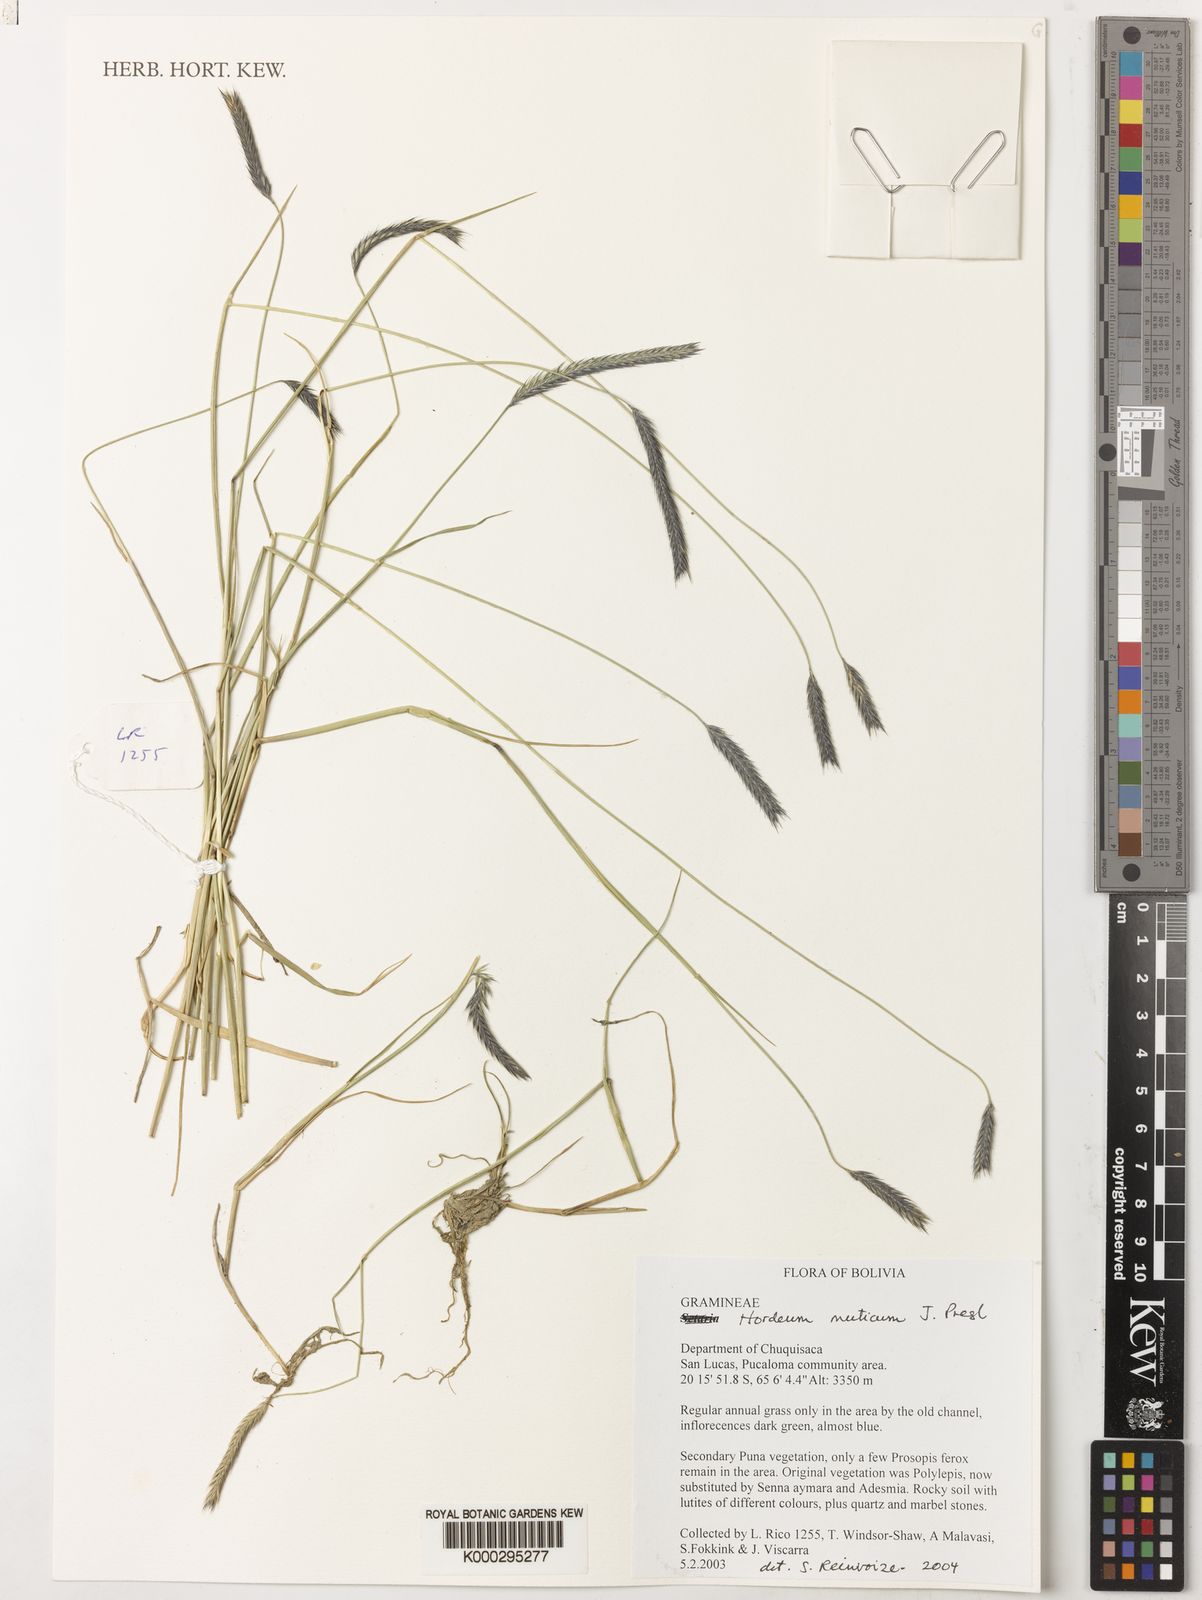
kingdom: Plantae
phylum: Tracheophyta
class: Liliopsida
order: Poales
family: Poaceae
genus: Hordeum
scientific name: Hordeum muticum
